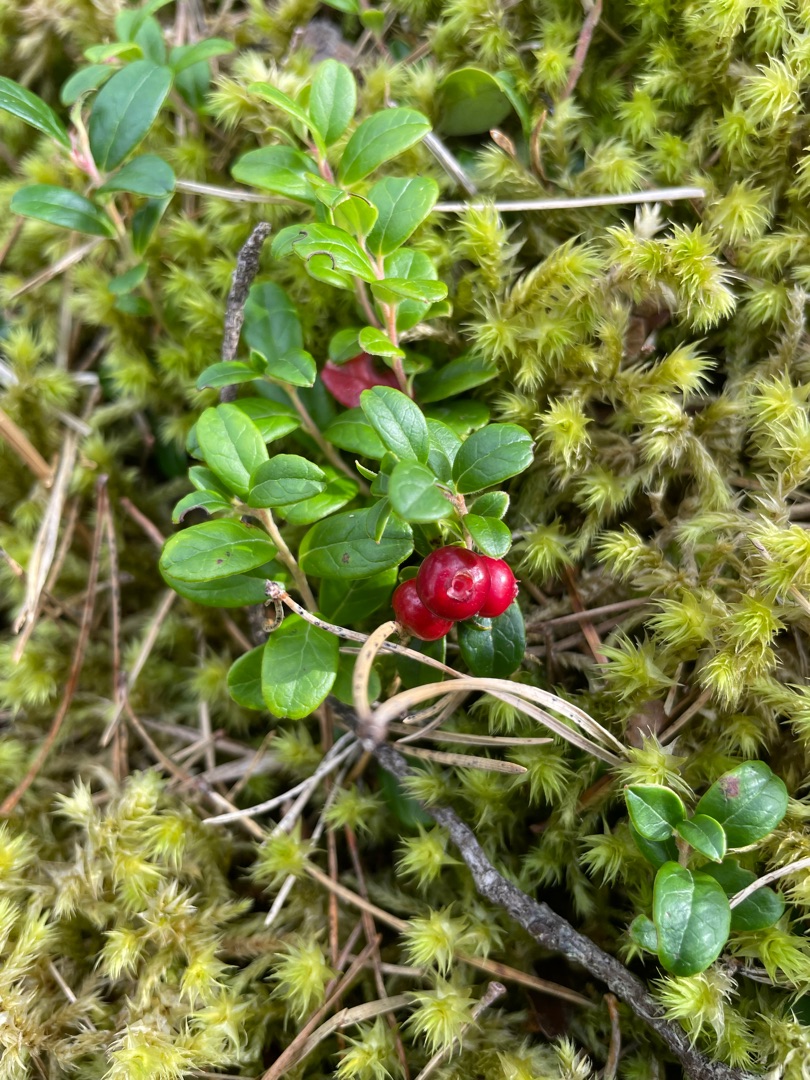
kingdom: Plantae
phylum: Tracheophyta
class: Magnoliopsida
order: Ericales
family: Ericaceae
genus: Vaccinium
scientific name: Vaccinium vitis-idaea
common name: Tyttebær
